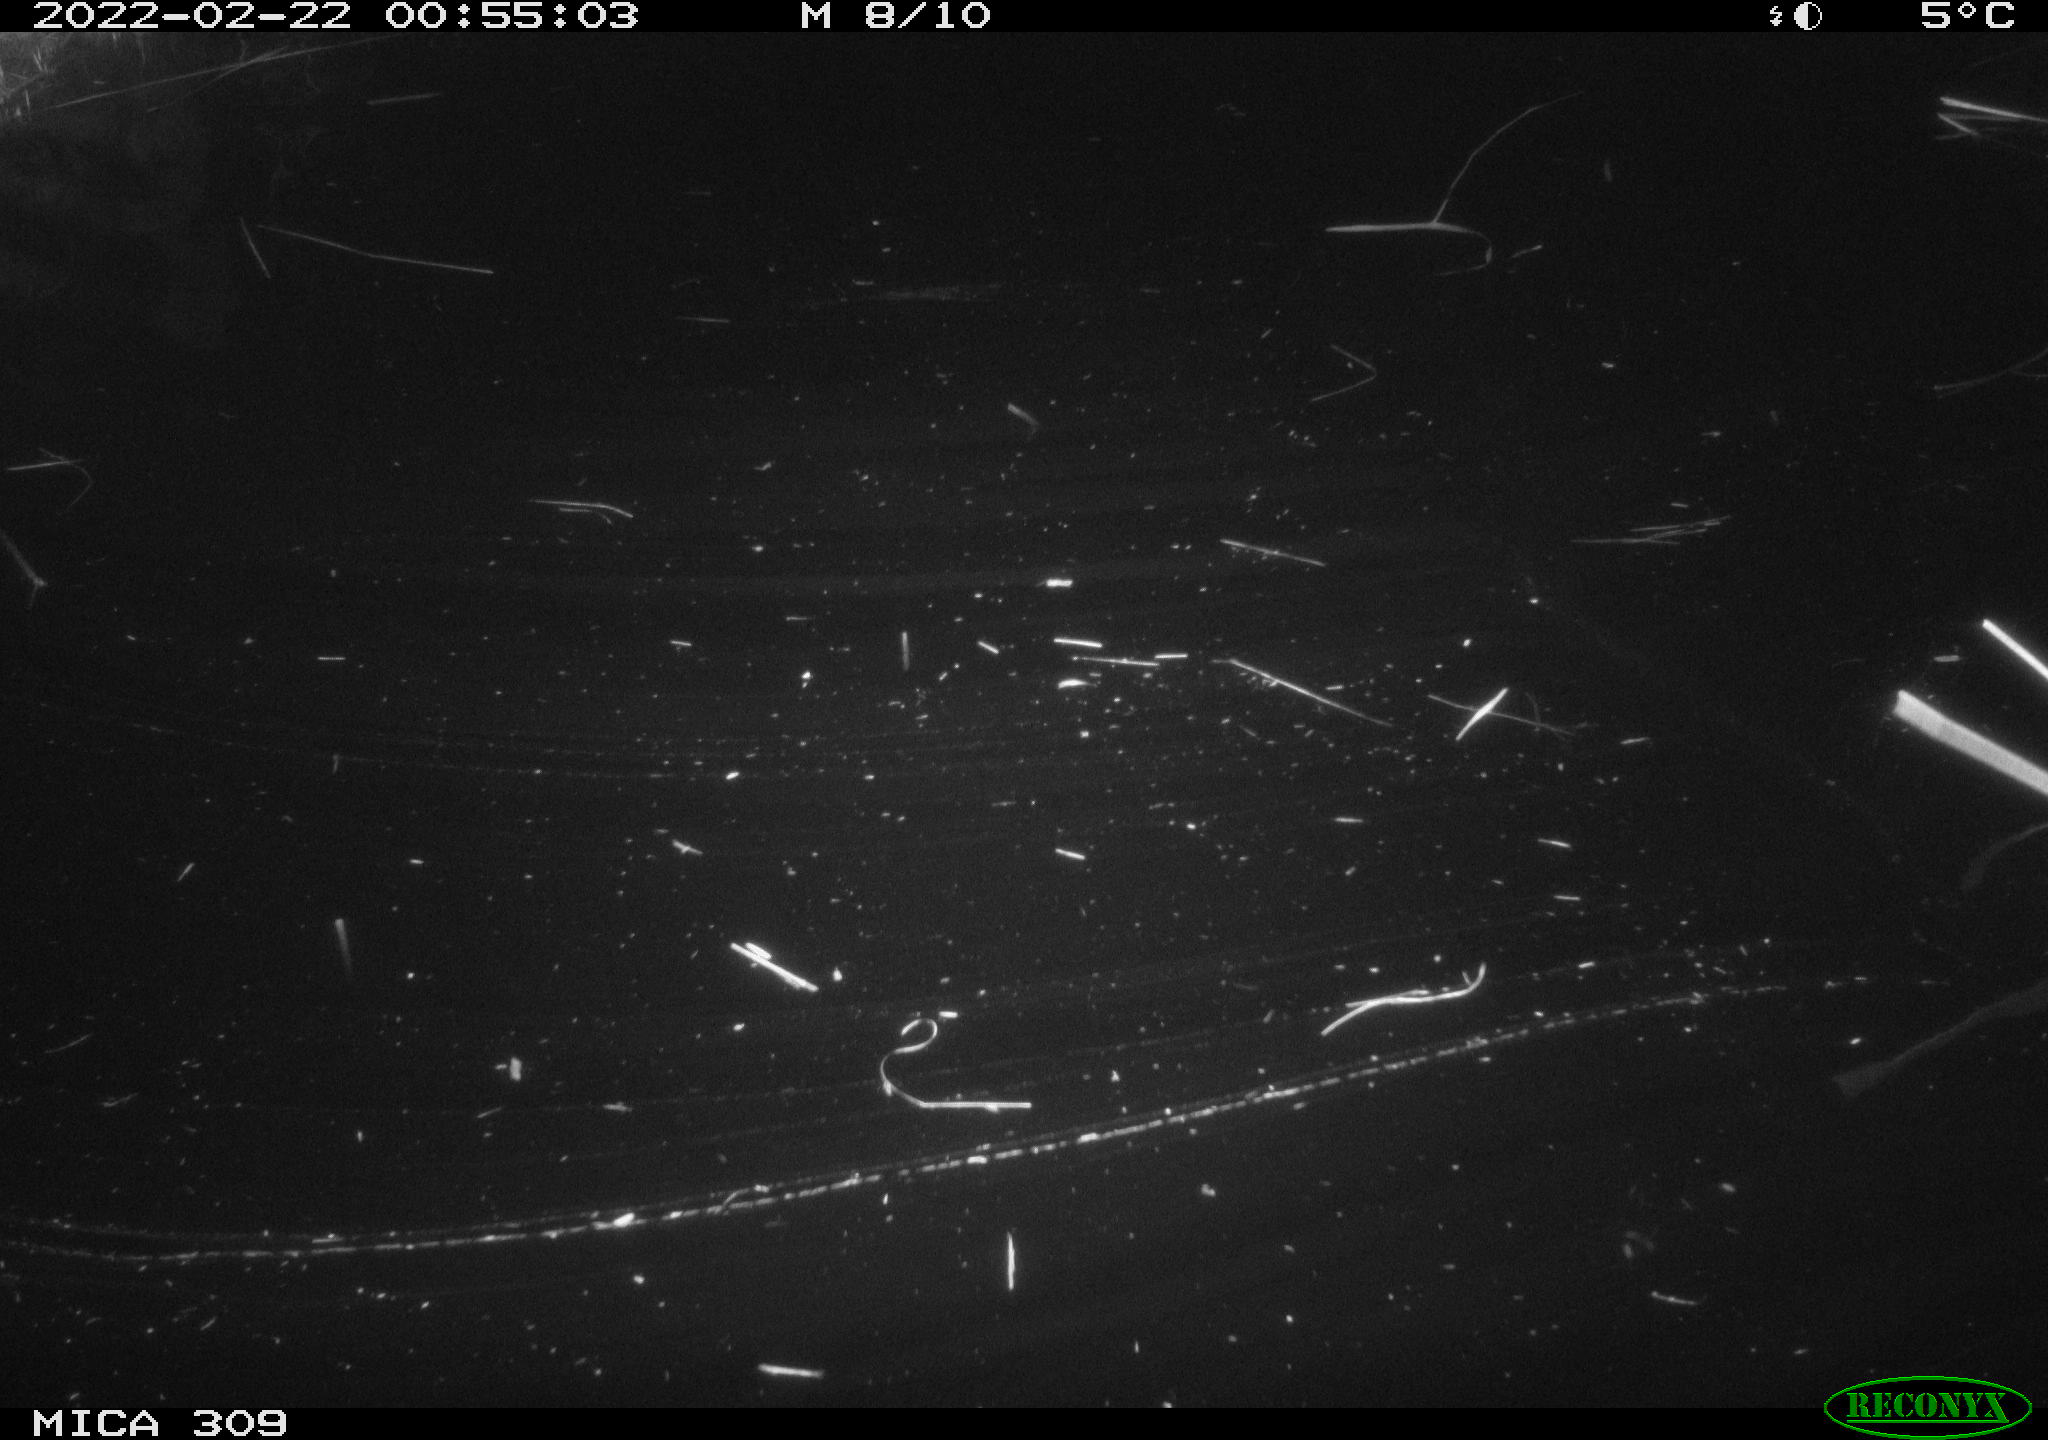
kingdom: Animalia
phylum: Chordata
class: Mammalia
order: Rodentia
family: Cricetidae
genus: Ondatra
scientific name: Ondatra zibethicus
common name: Muskrat
